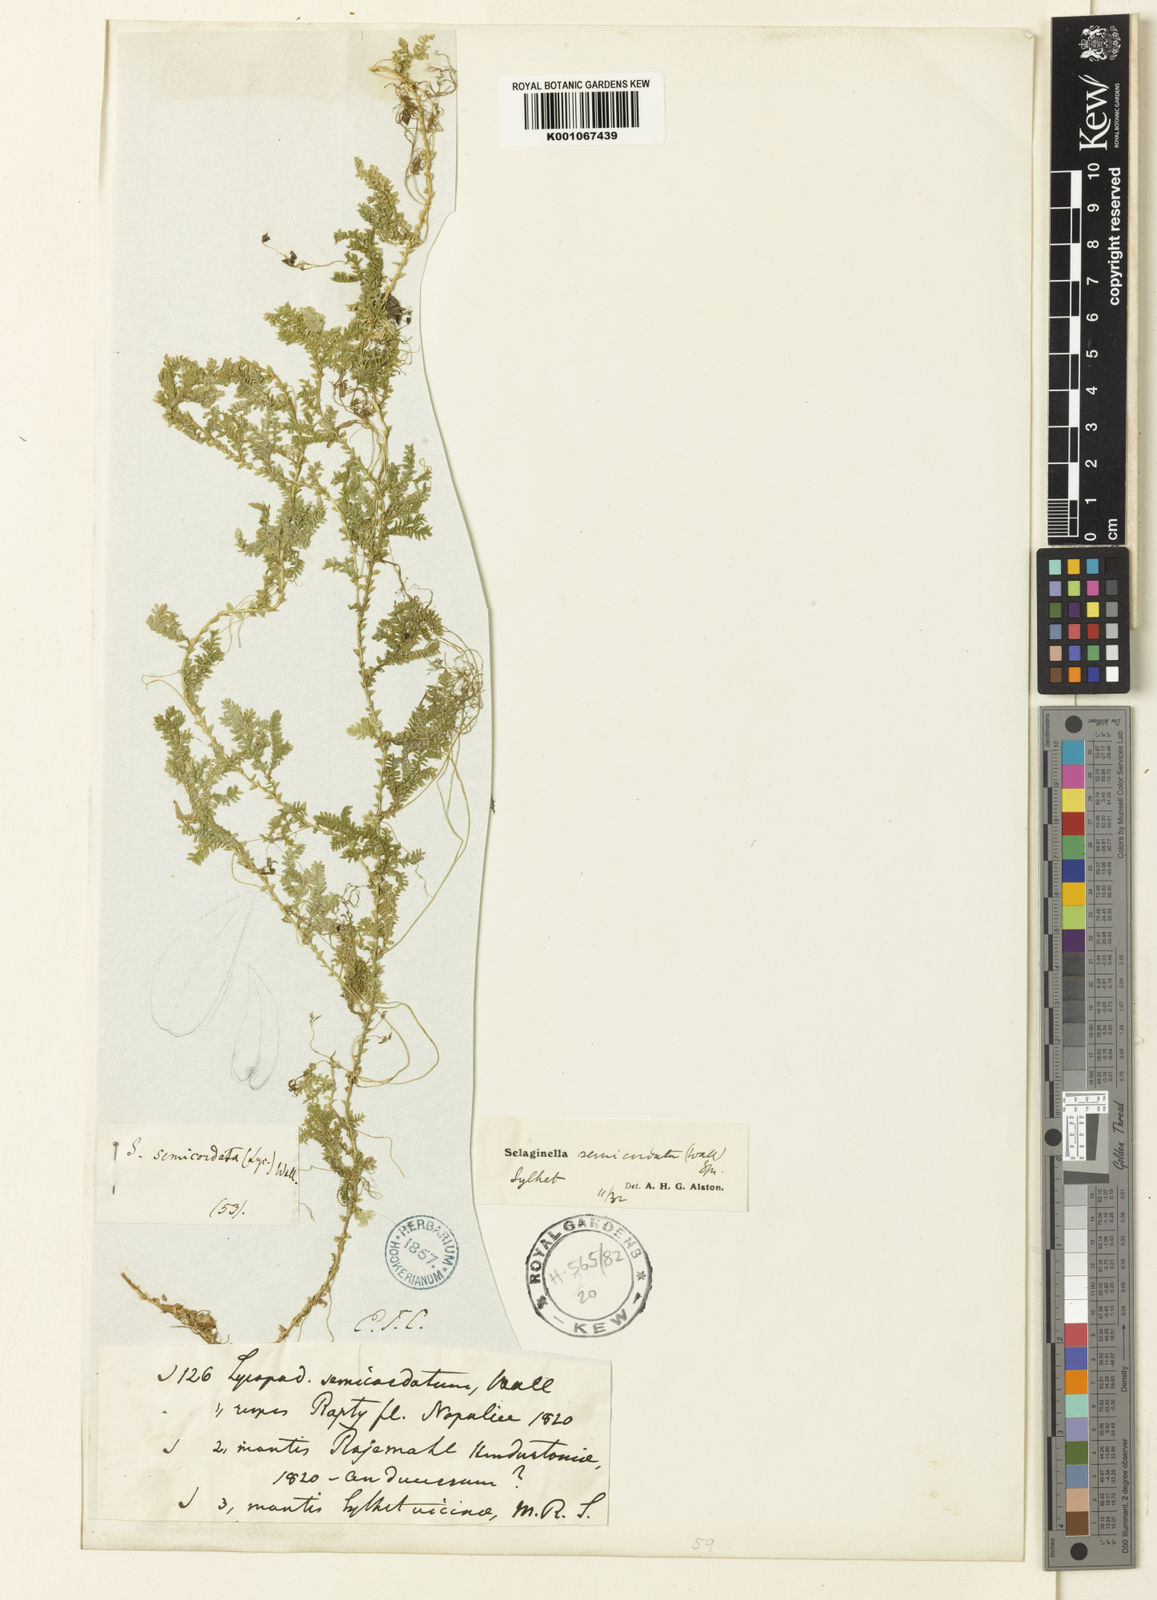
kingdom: Plantae
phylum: Tracheophyta
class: Lycopodiopsida
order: Selaginellales
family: Selaginellaceae
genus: Selaginella
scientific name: Selaginella semicordata
